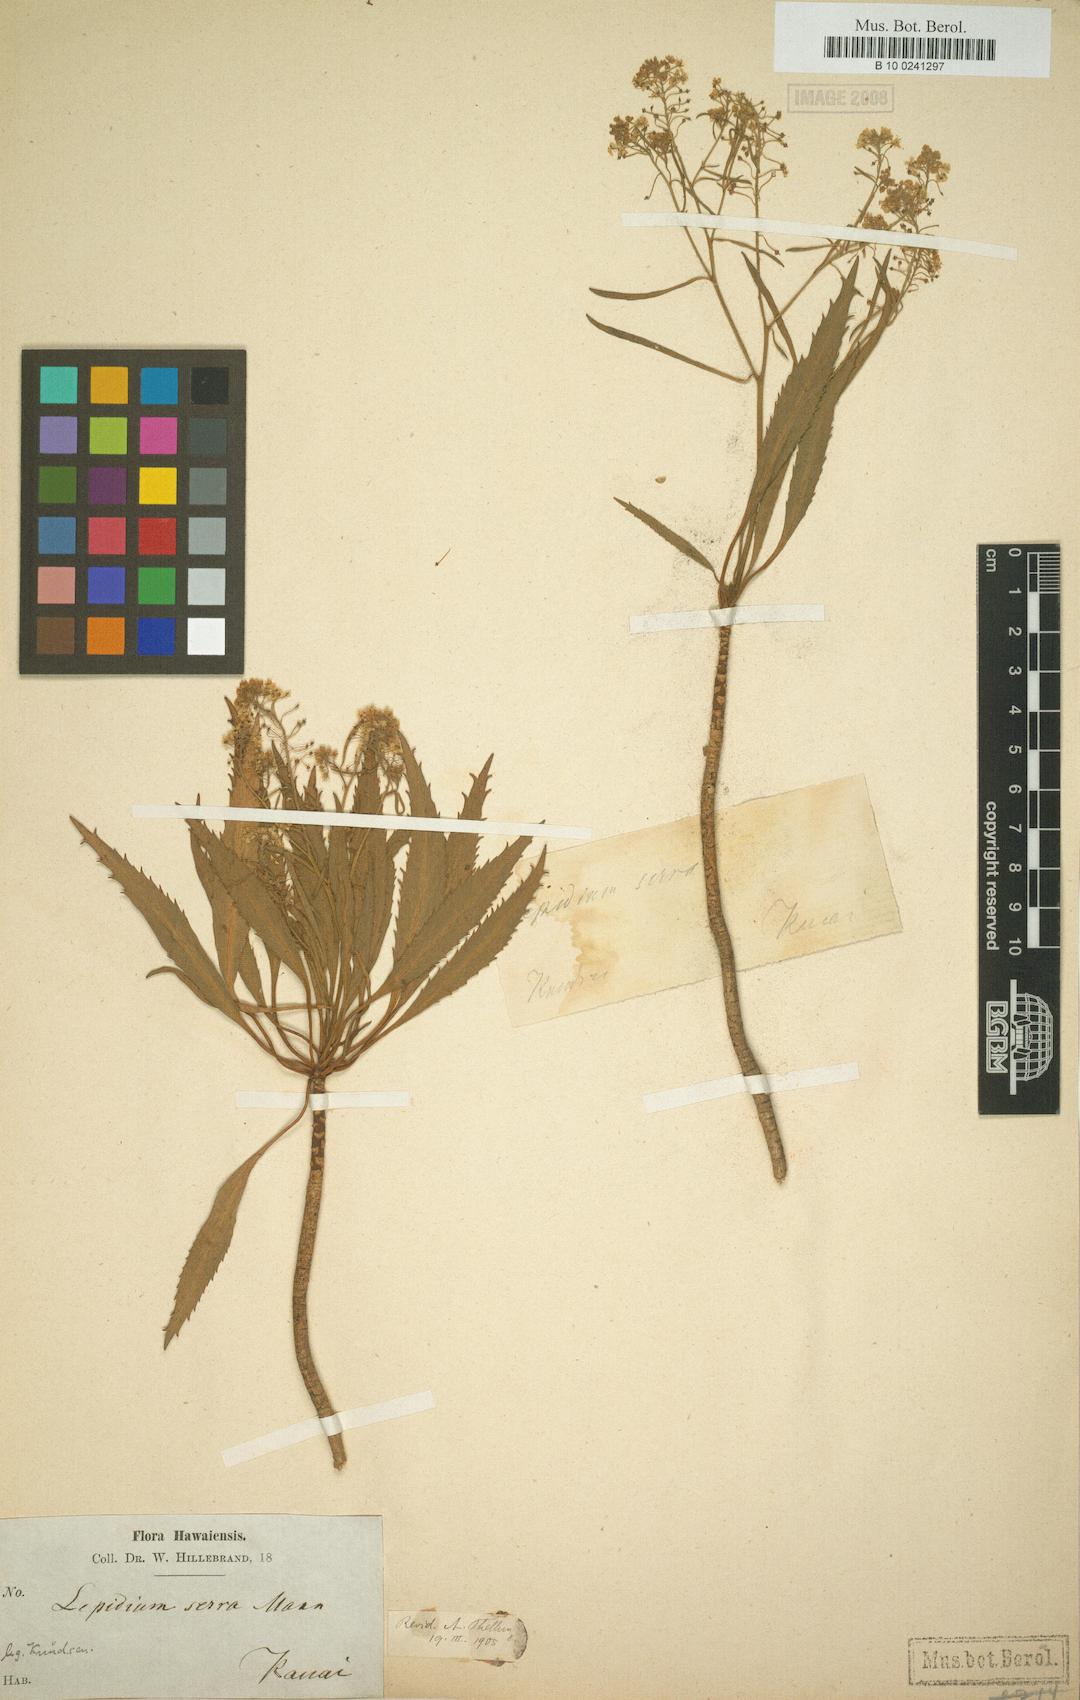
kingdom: Plantae
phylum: Tracheophyta
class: Magnoliopsida
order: Brassicales
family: Brassicaceae
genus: Lepidium
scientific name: Lepidium serra
